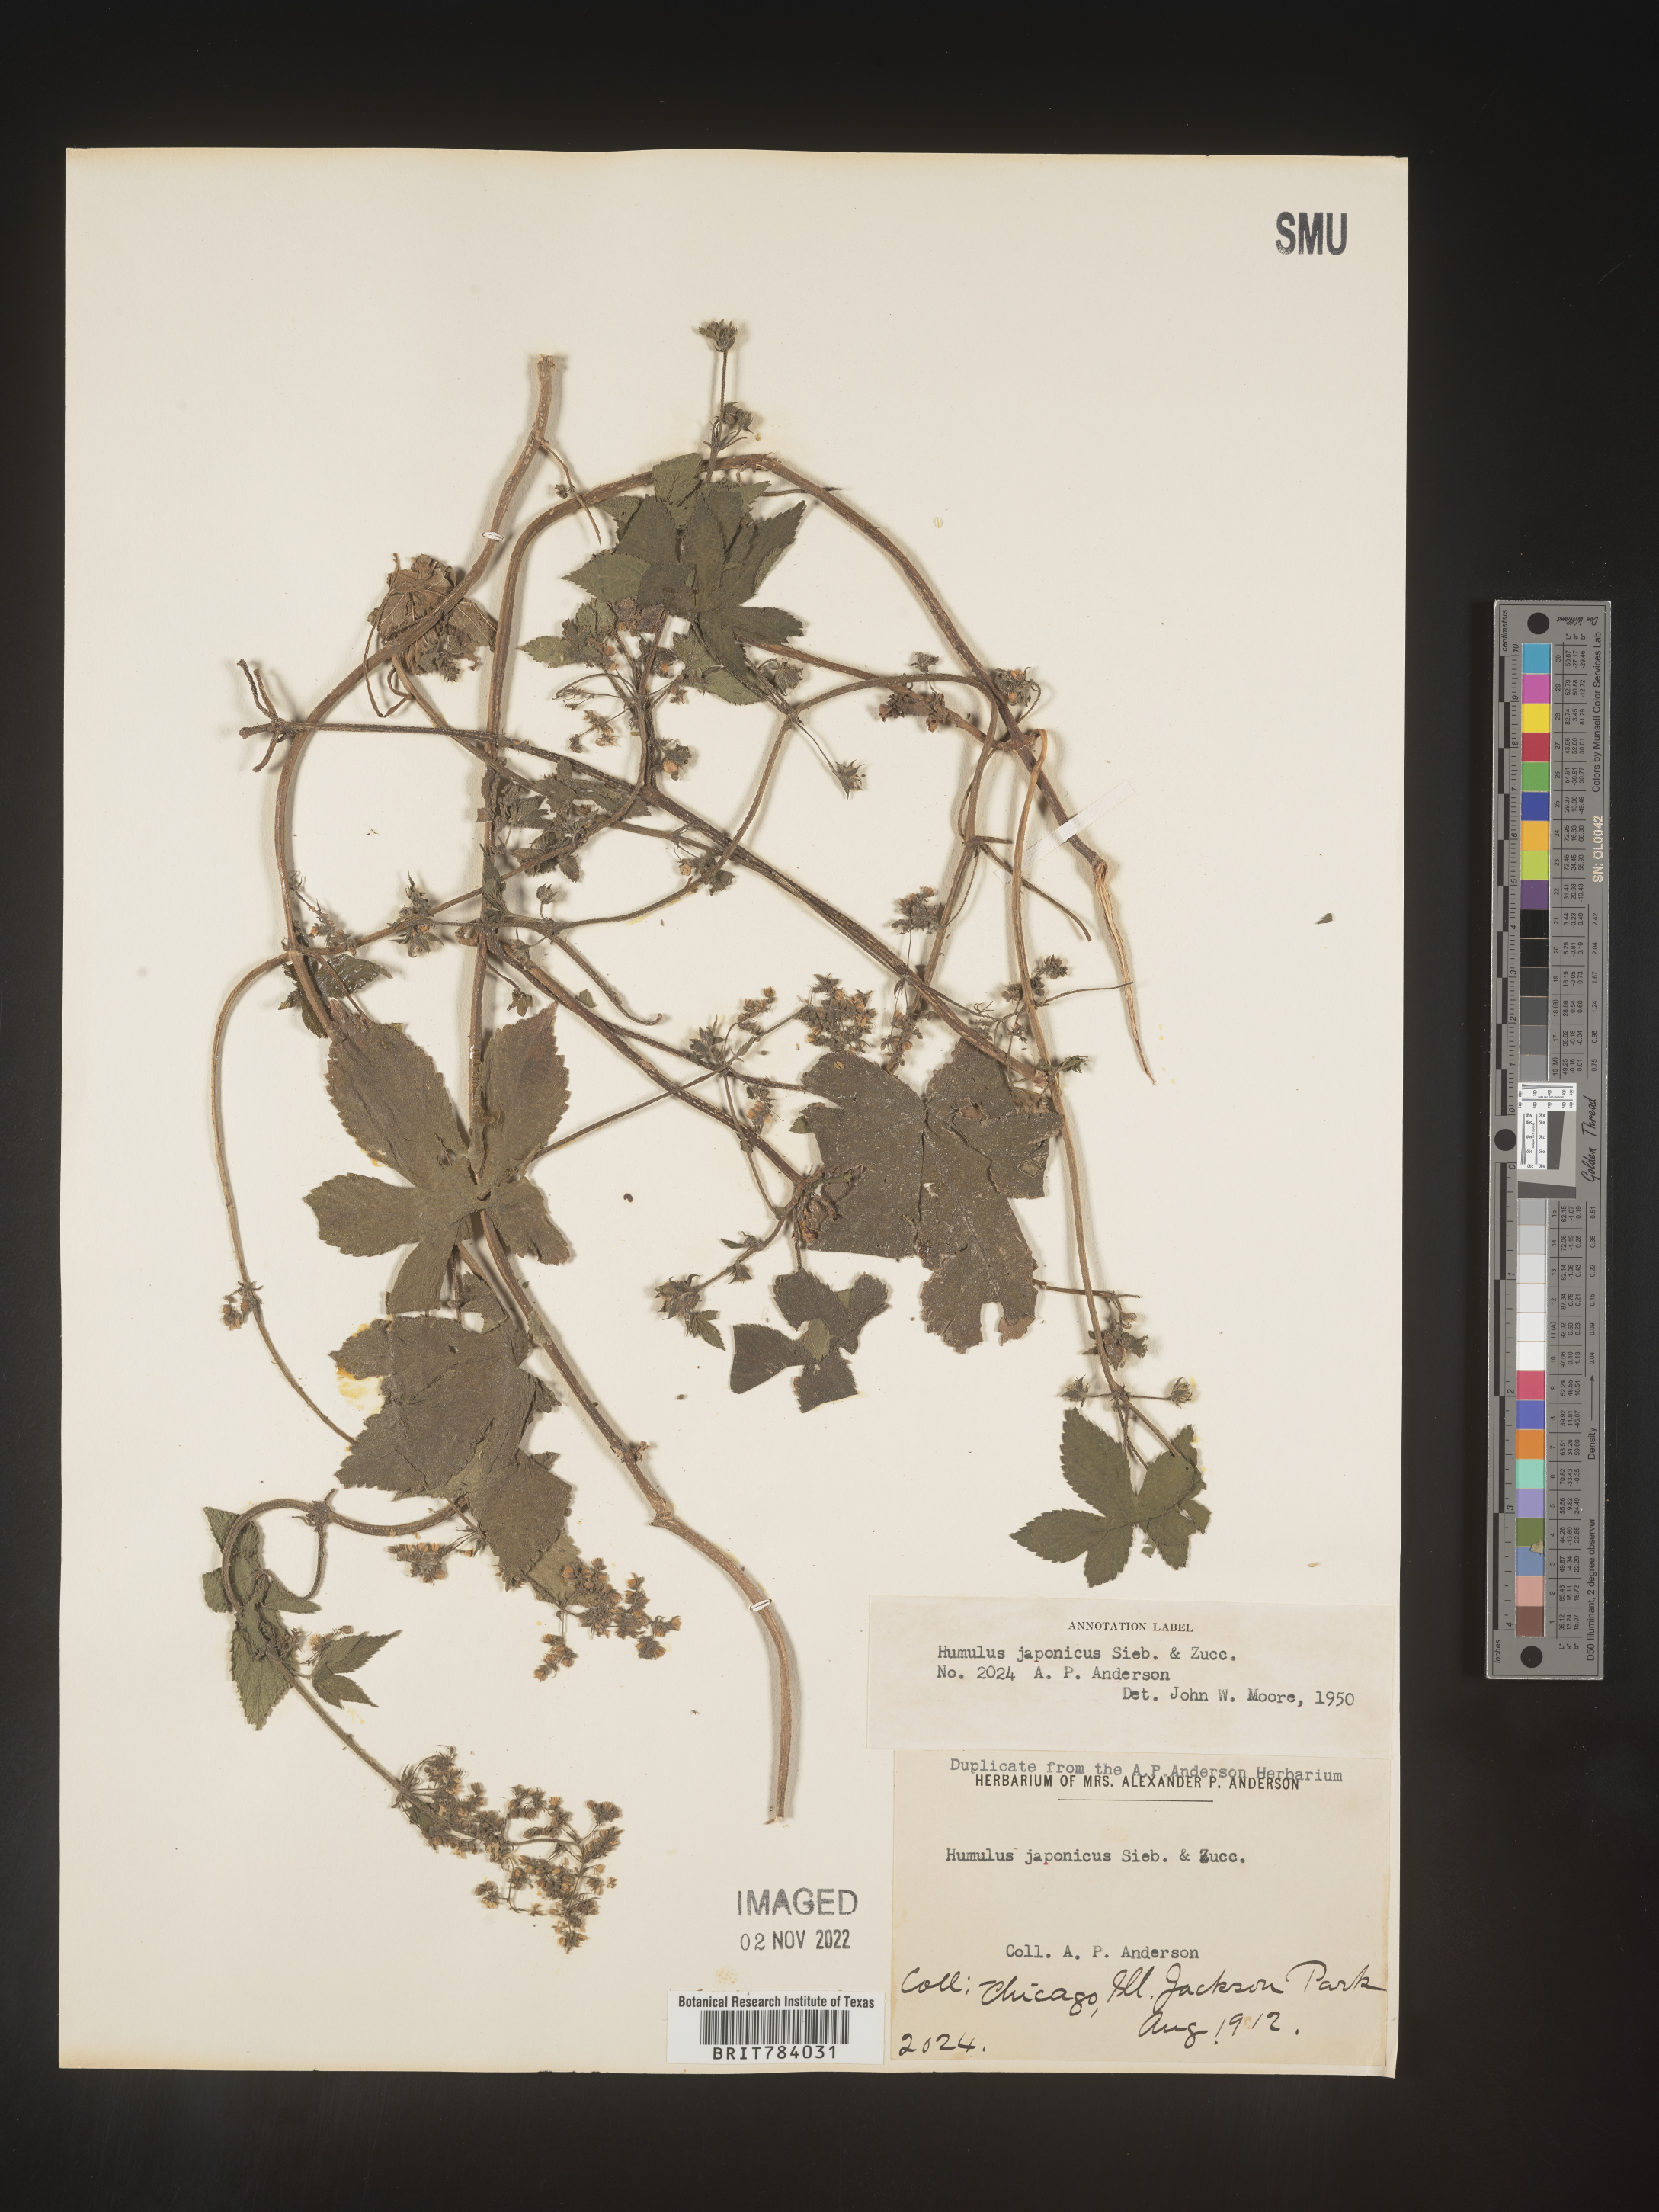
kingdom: Plantae
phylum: Tracheophyta
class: Magnoliopsida
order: Rosales
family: Cannabaceae
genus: Humulus
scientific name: Humulus scandens
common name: Japanese hop
